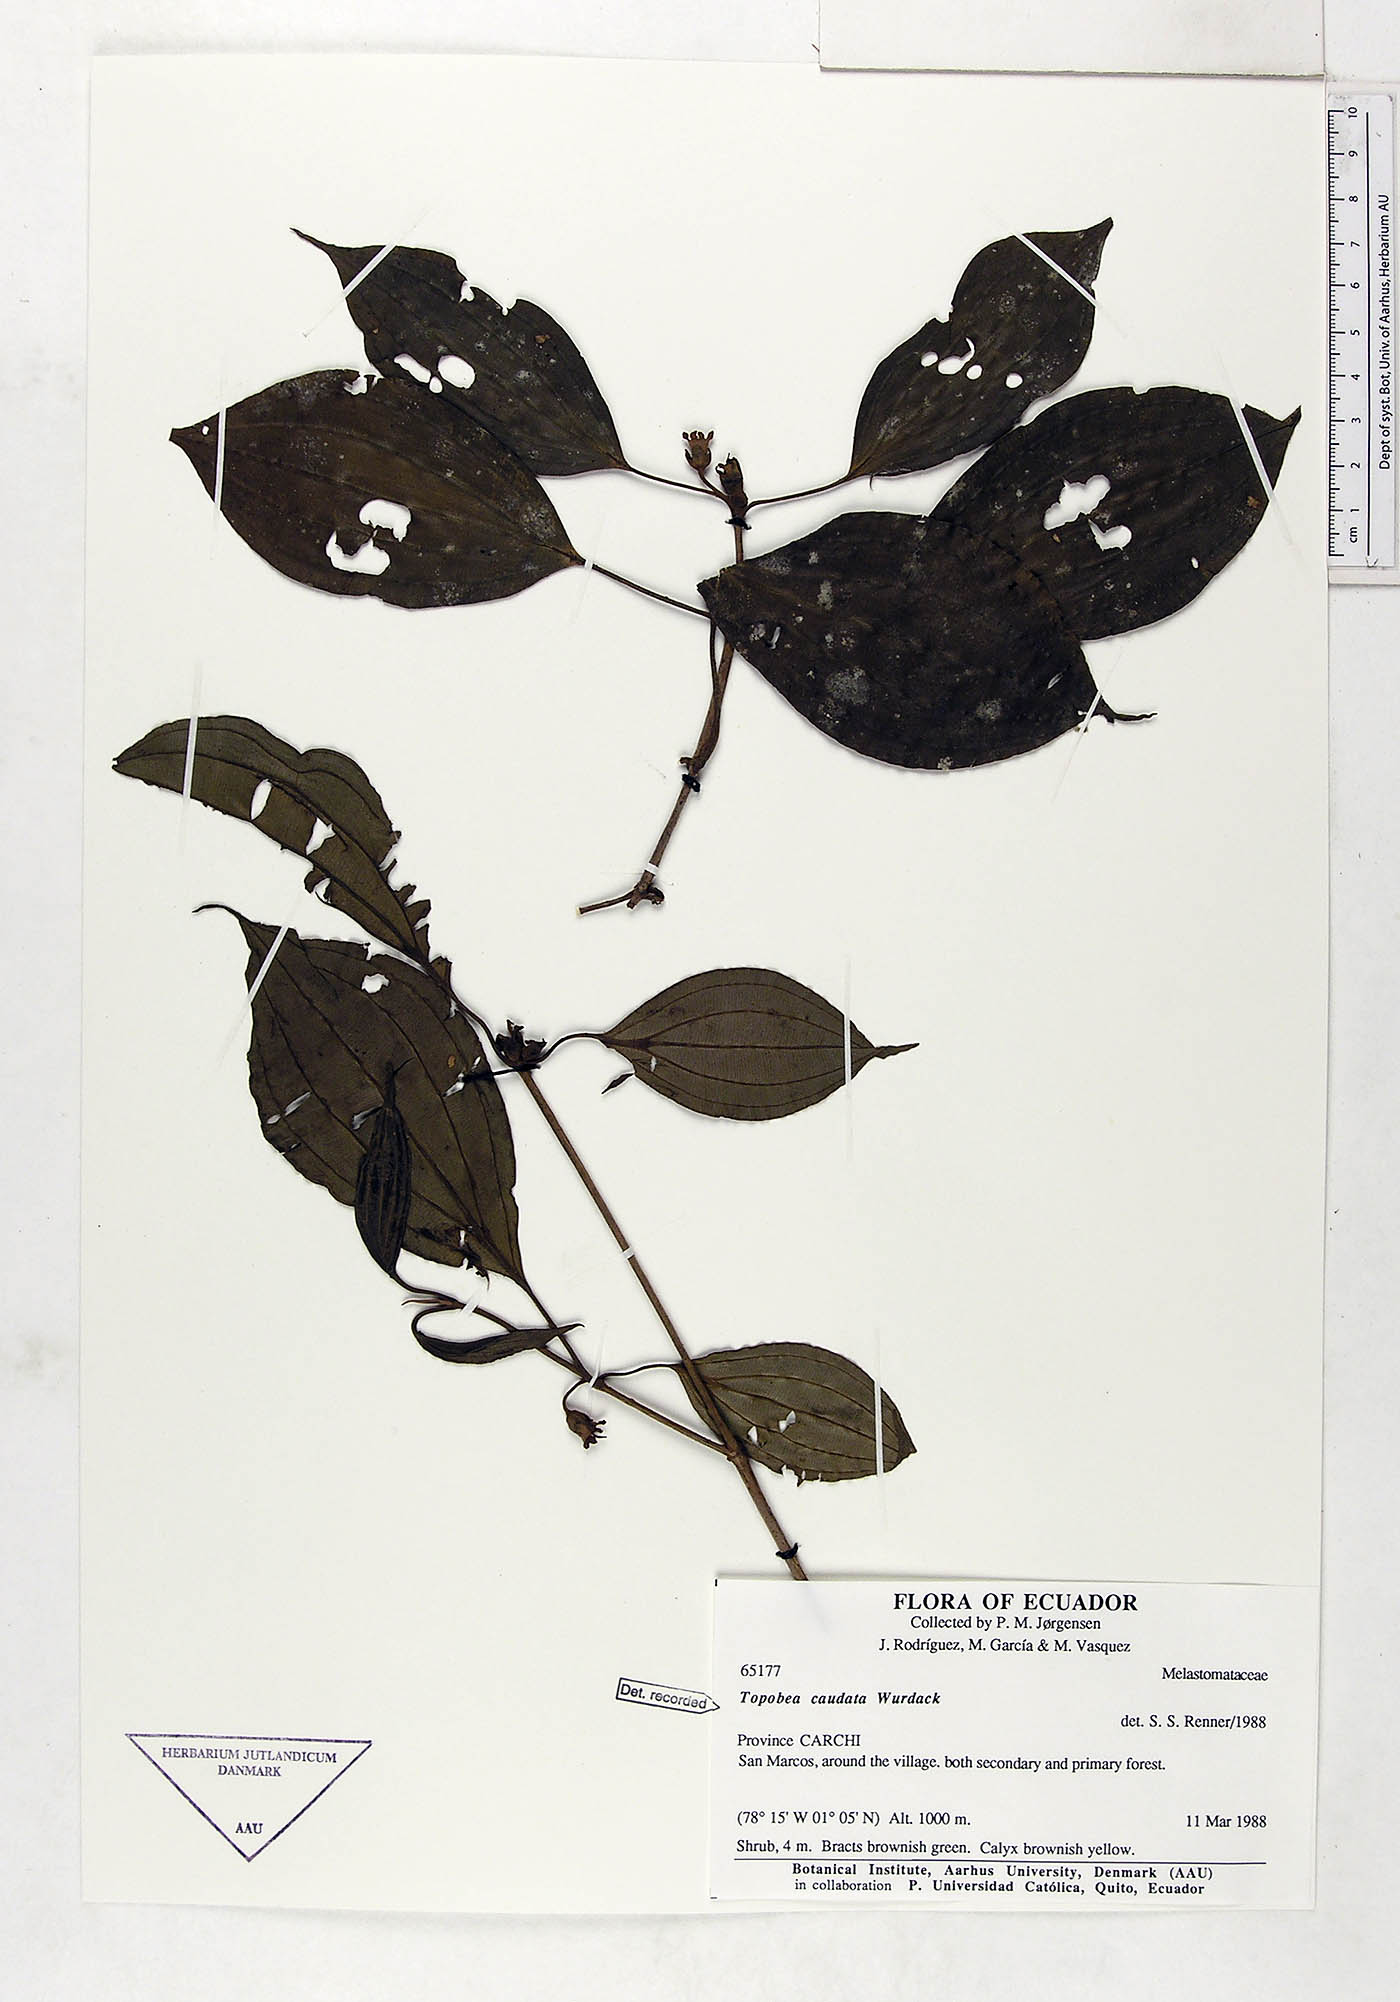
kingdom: Plantae
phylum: Tracheophyta
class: Magnoliopsida
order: Myrtales
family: Melastomataceae
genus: Blakea
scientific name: Blakea horologica
